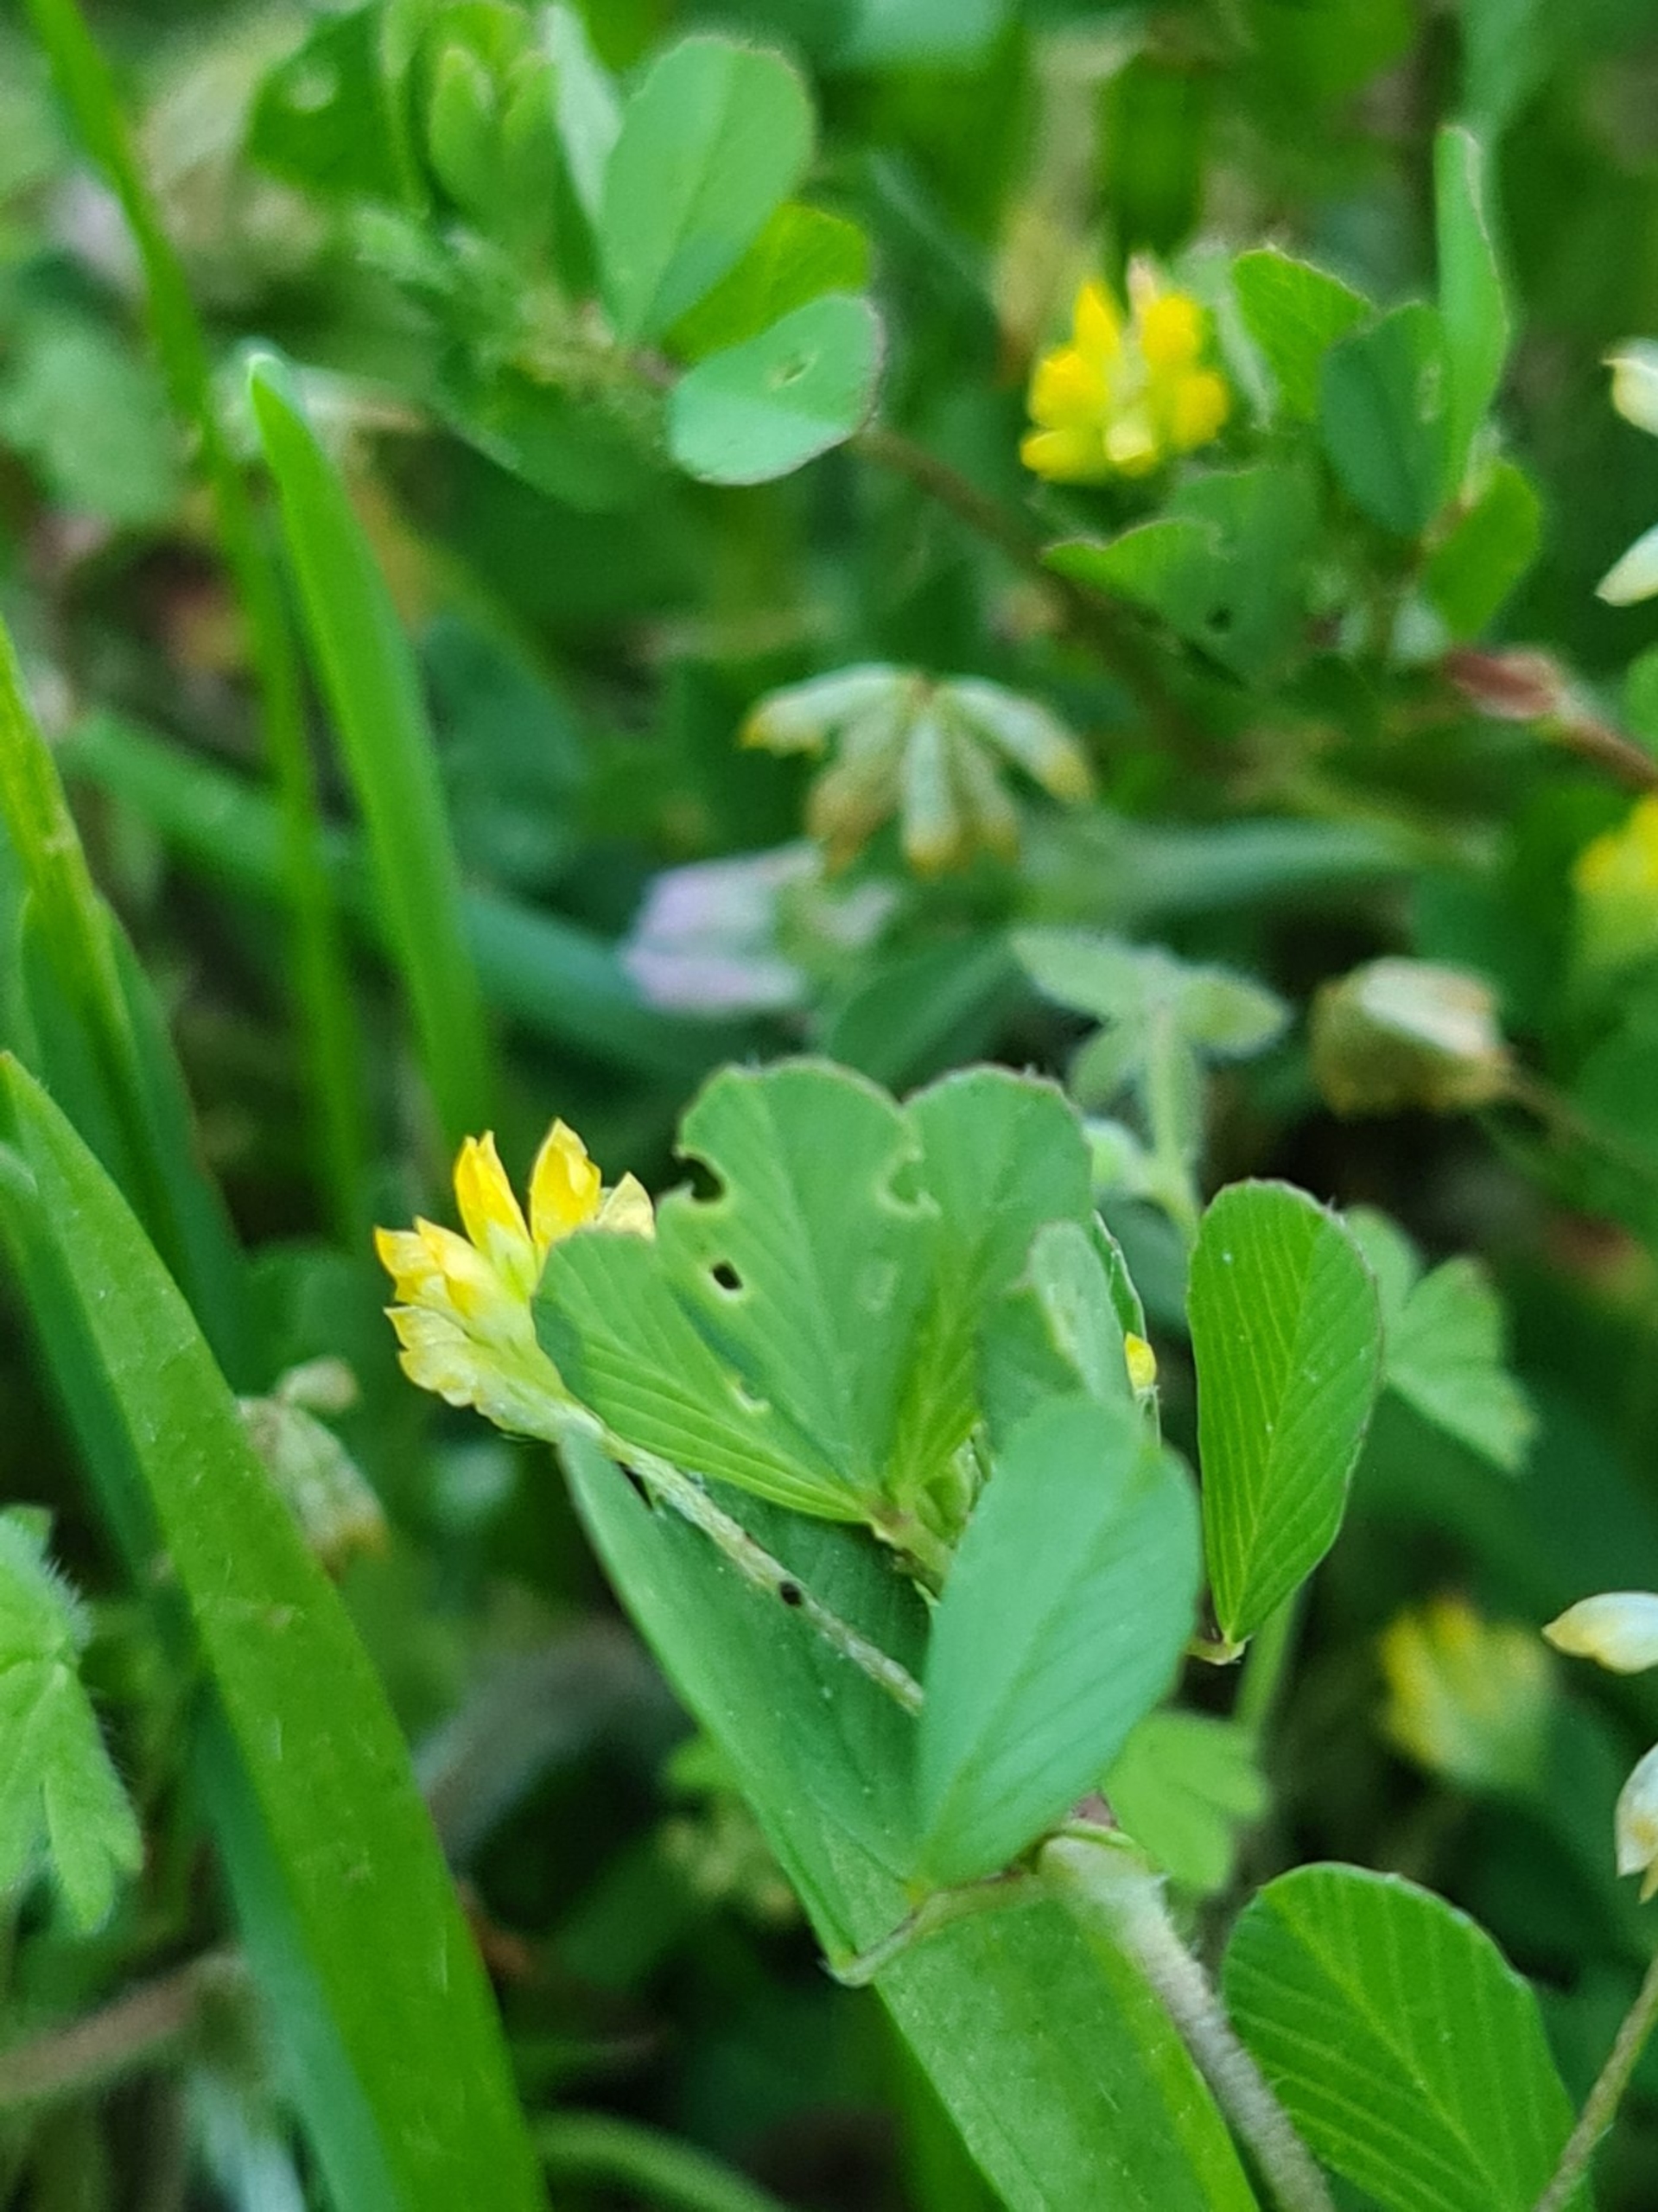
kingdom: Plantae
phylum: Tracheophyta
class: Magnoliopsida
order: Fabales
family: Fabaceae
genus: Trifolium
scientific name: Trifolium dubium
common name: Fin kløver
